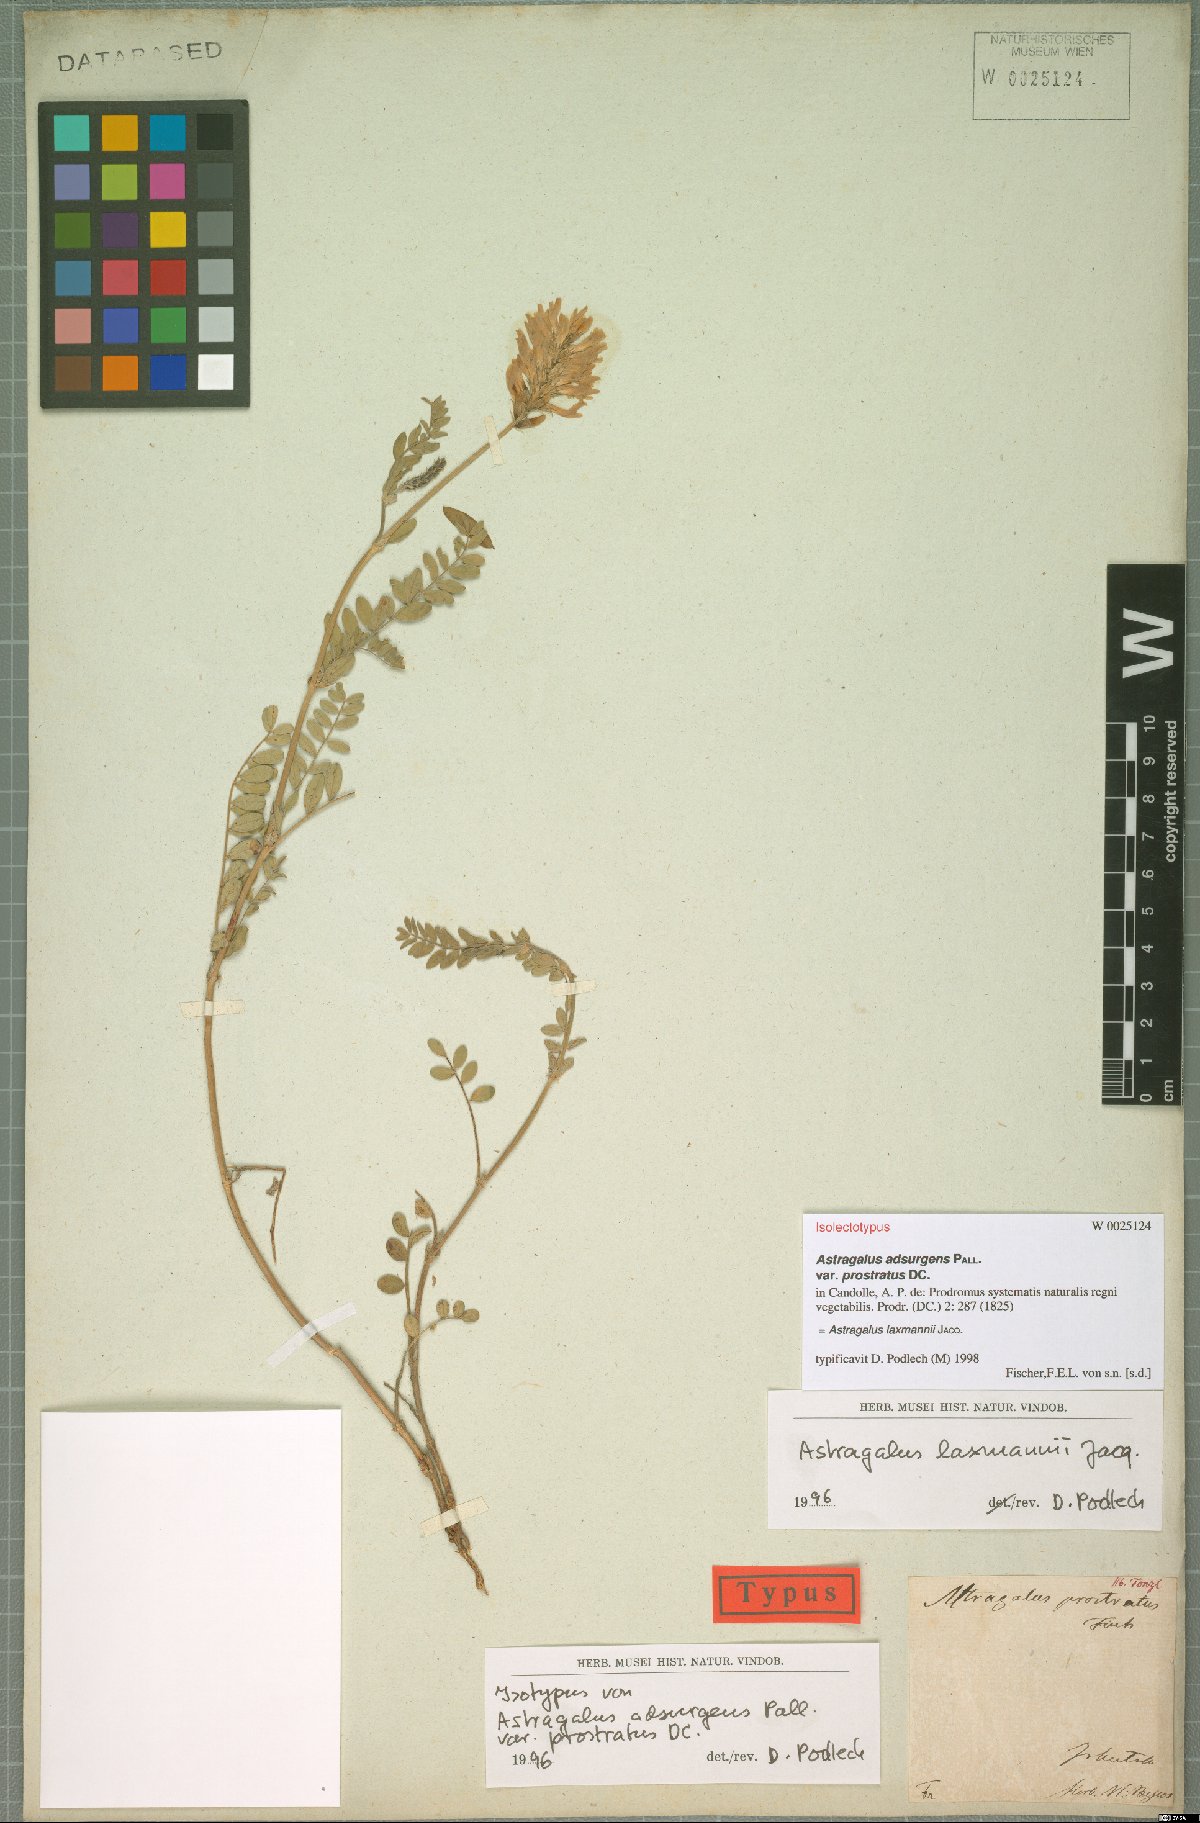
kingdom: Plantae
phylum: Tracheophyta
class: Magnoliopsida
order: Fabales
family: Fabaceae
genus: Astragalus
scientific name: Astragalus laxmannii
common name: Laxmann's milk-vetch
